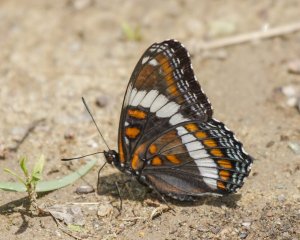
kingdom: Animalia
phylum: Arthropoda
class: Insecta
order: Lepidoptera
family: Nymphalidae
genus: Limenitis
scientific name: Limenitis arthemis
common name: Red-spotted Admiral
